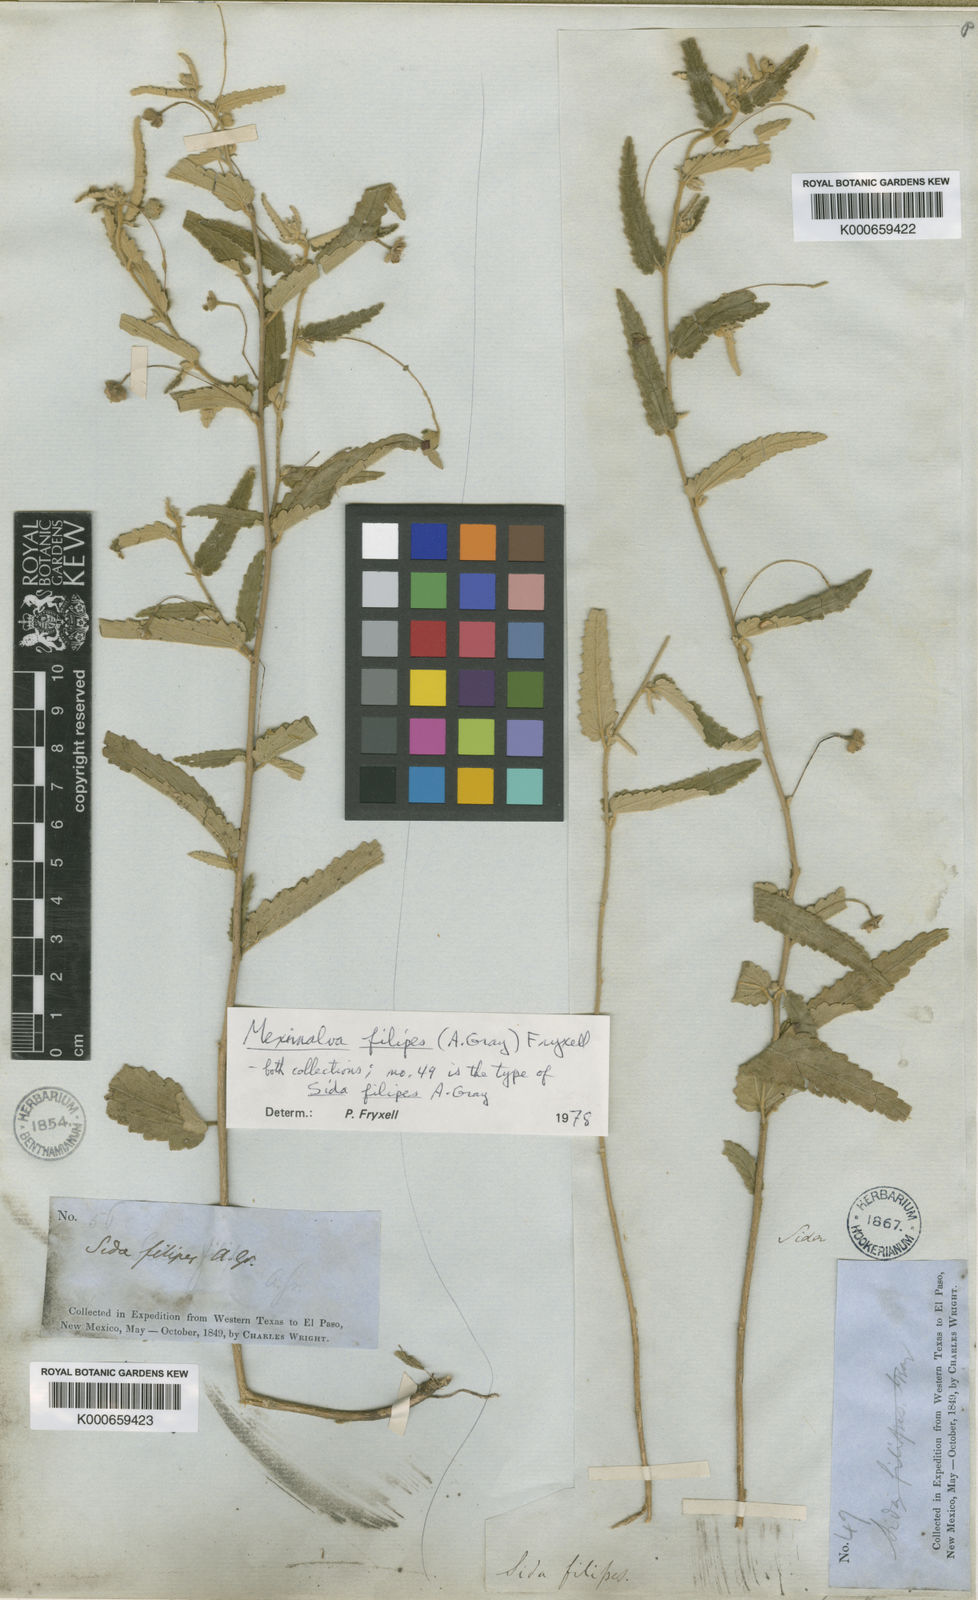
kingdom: Plantae
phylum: Tracheophyta
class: Magnoliopsida
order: Malvales
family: Malvaceae
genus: Meximalva
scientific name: Meximalva filipes
